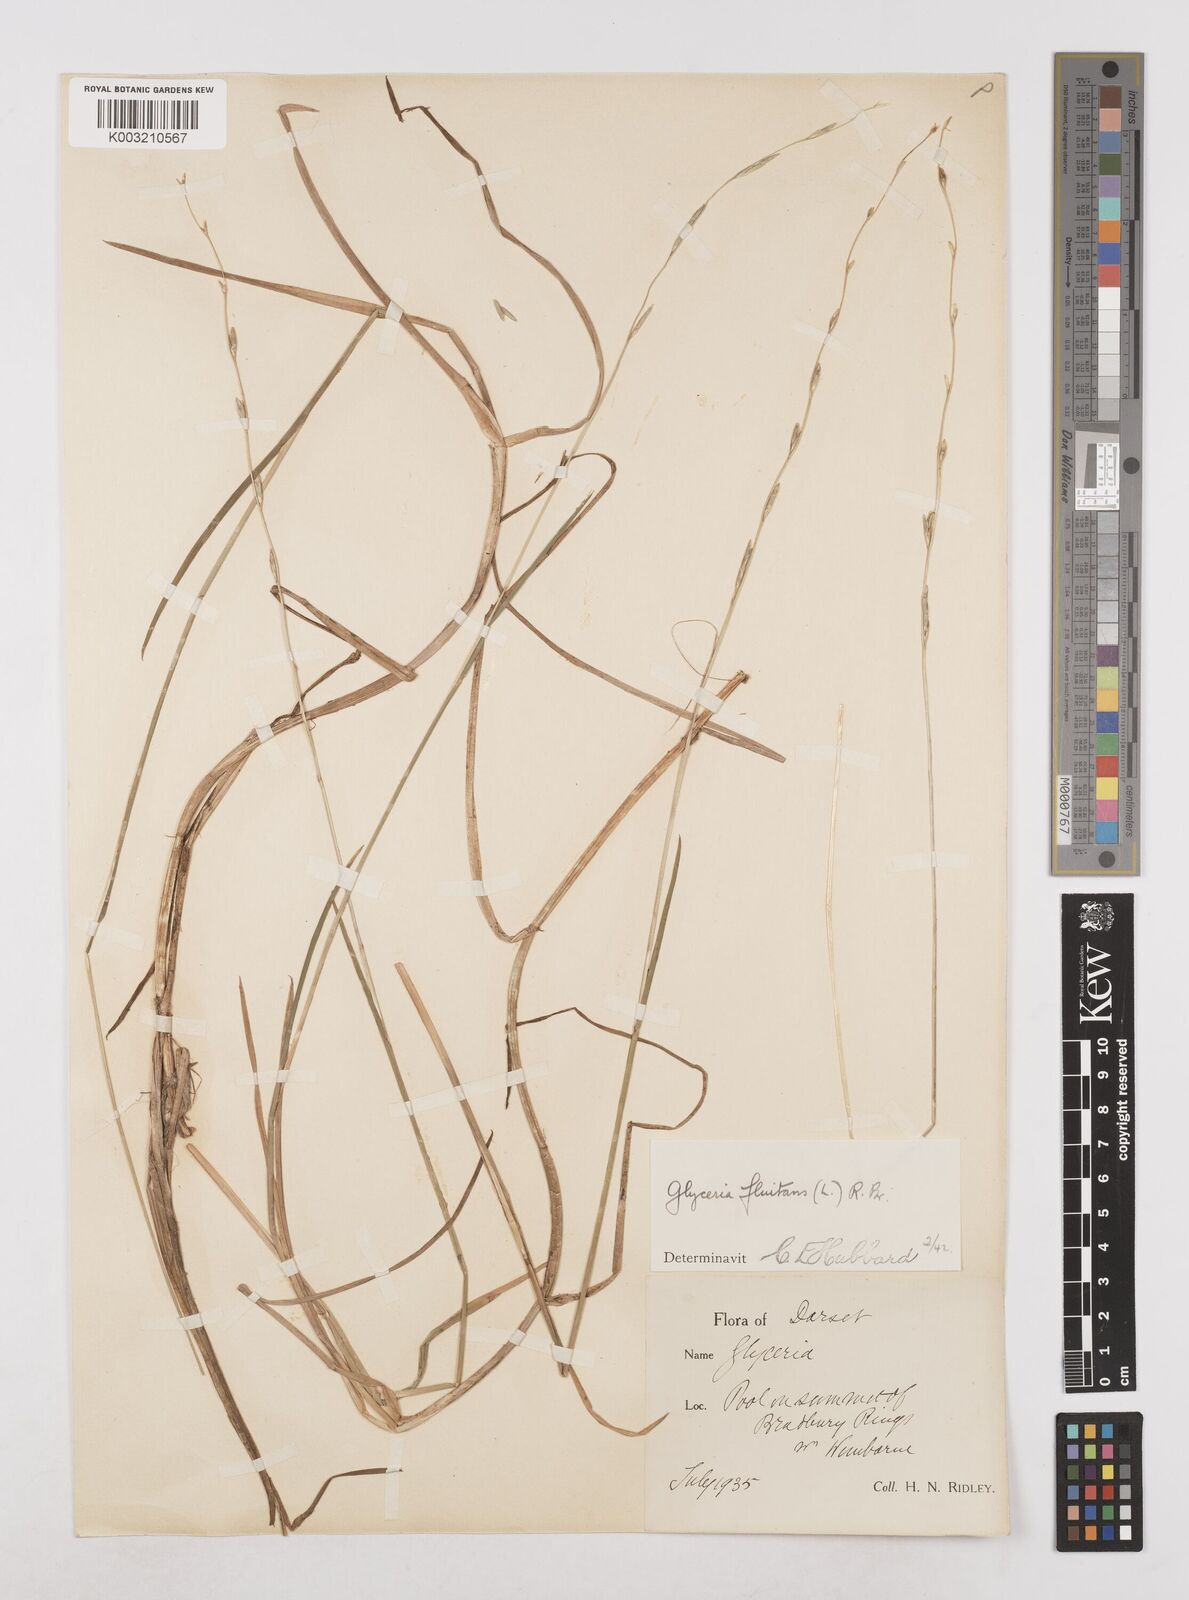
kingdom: Plantae
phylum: Tracheophyta
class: Liliopsida
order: Poales
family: Poaceae
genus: Glyceria
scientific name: Glyceria fluitans
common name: Floating sweet-grass
